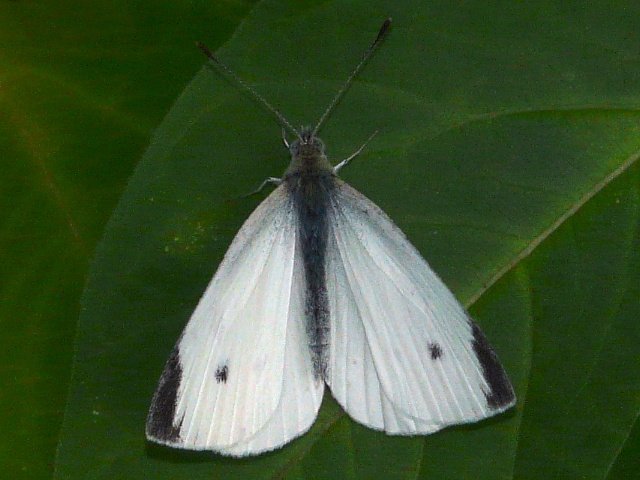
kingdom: Animalia
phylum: Arthropoda
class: Insecta
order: Lepidoptera
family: Pieridae
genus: Pieris
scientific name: Pieris rapae
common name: Cabbage White
